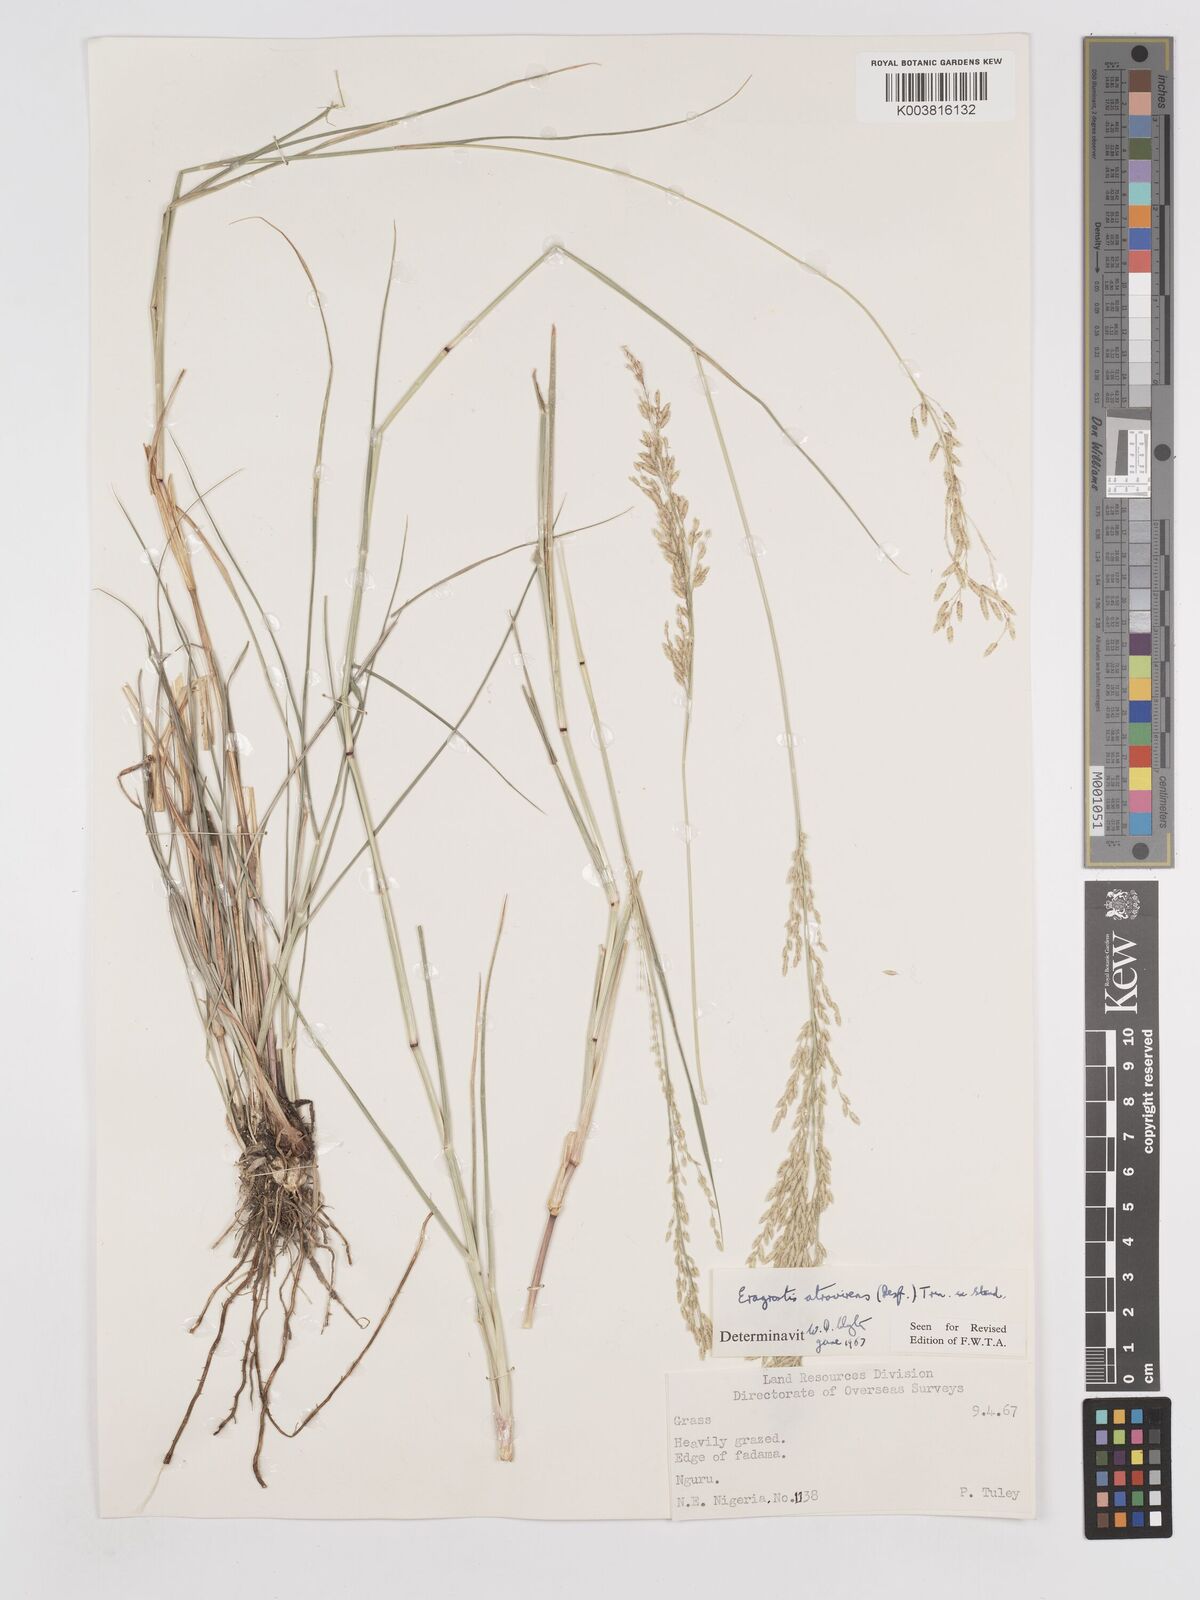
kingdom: Plantae
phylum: Tracheophyta
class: Liliopsida
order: Poales
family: Poaceae
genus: Eragrostis
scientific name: Eragrostis atrovirens
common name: Thalia lovegrass
